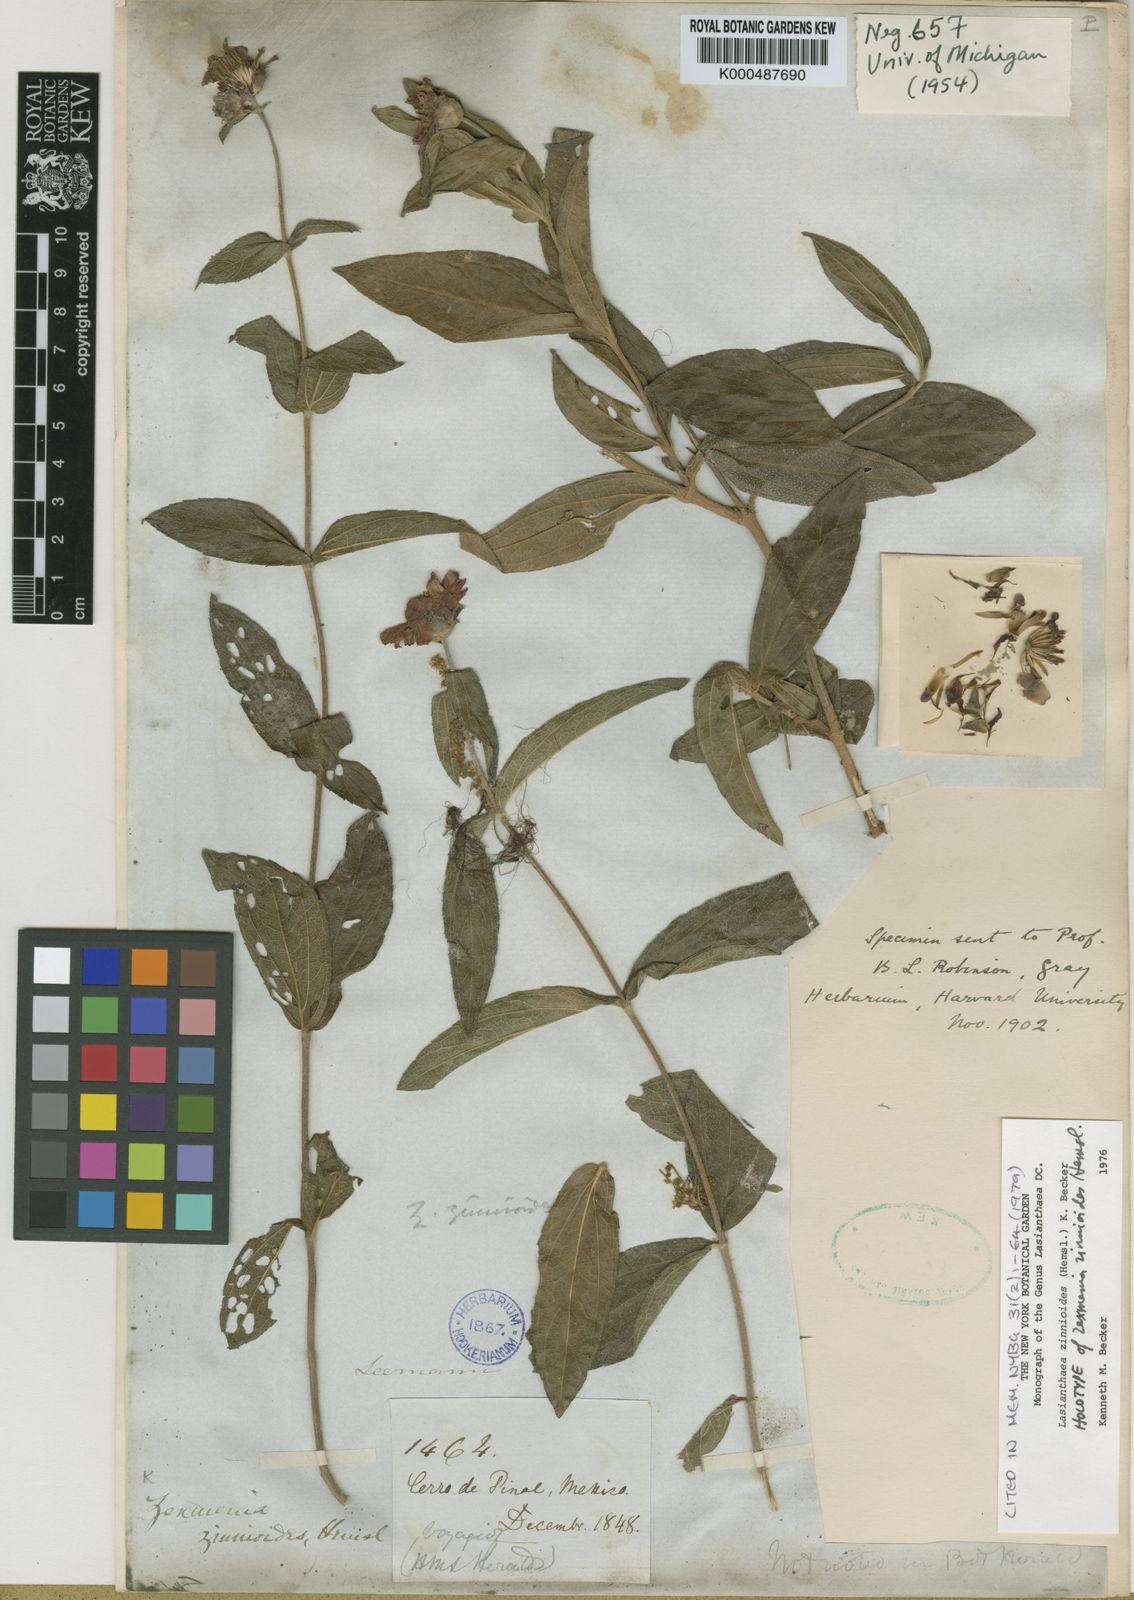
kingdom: Plantae
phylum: Tracheophyta
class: Magnoliopsida
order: Asterales
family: Asteraceae
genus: Lasianthaea
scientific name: Lasianthaea zinnioides
